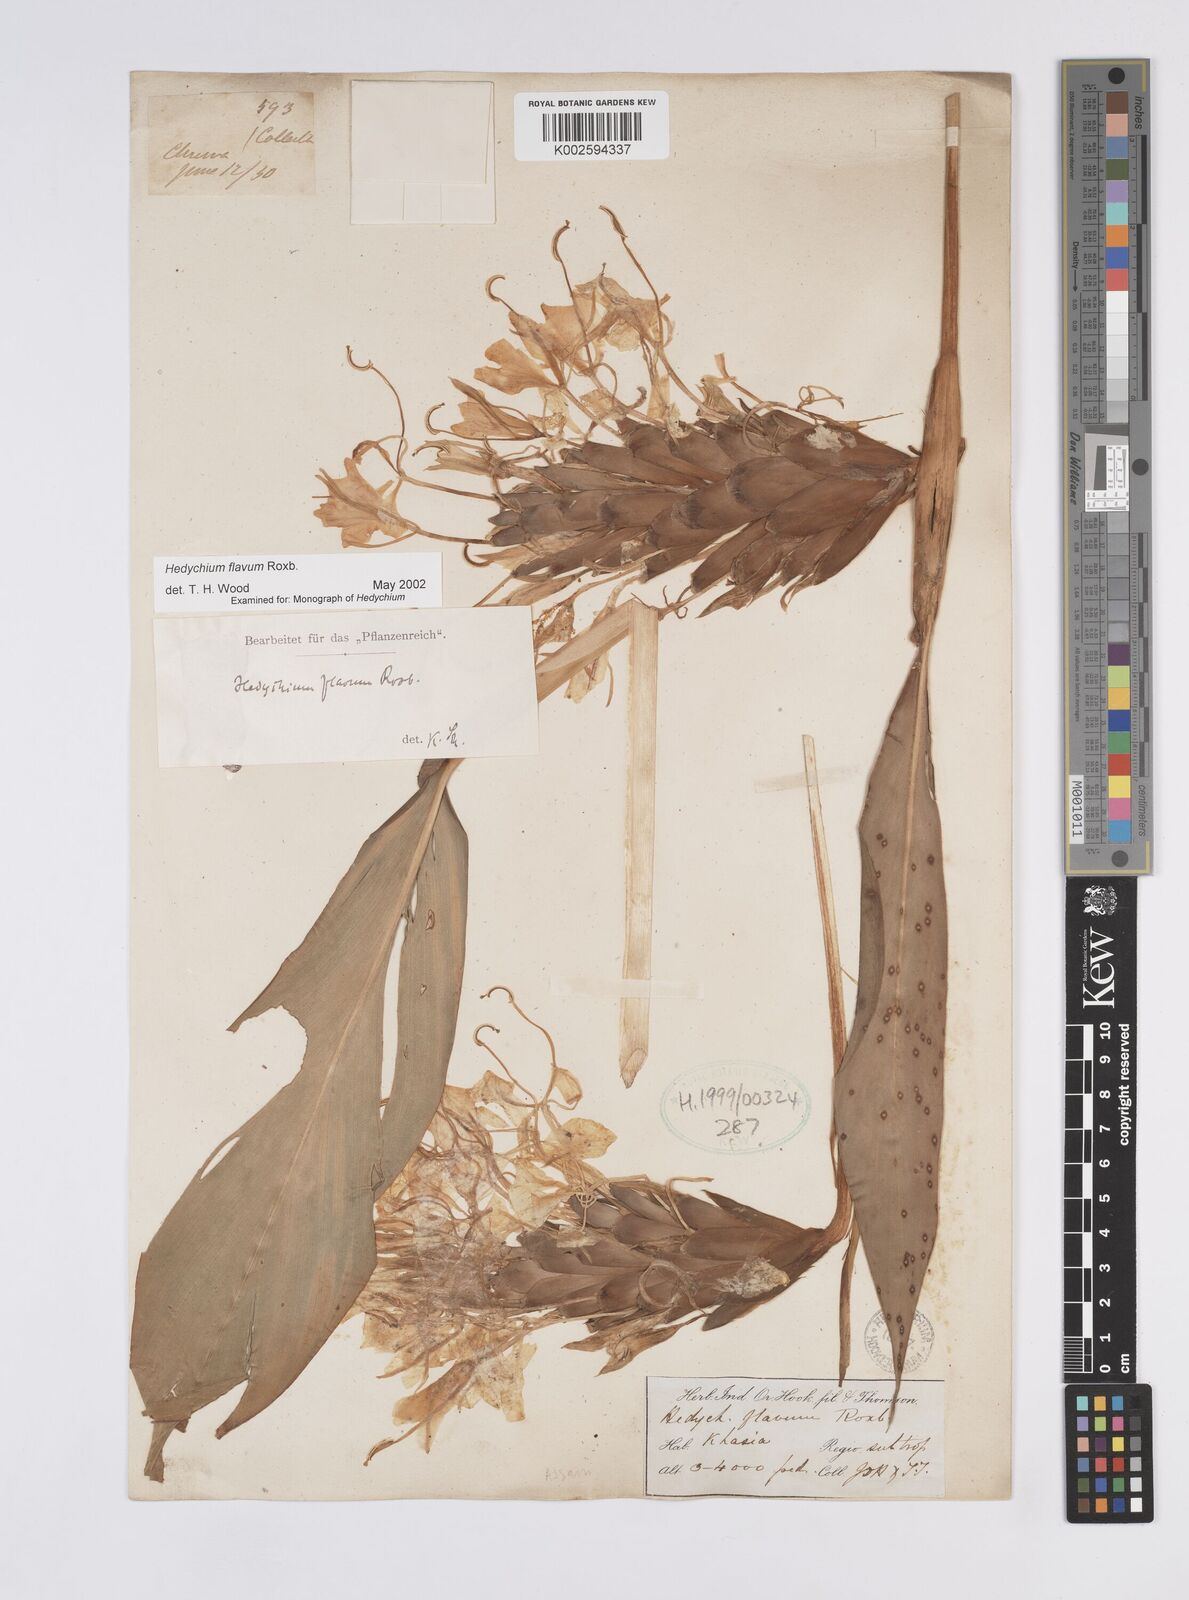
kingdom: Plantae
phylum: Tracheophyta
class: Liliopsida
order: Zingiberales
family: Zingiberaceae
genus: Hedychium
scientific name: Hedychium flavum
